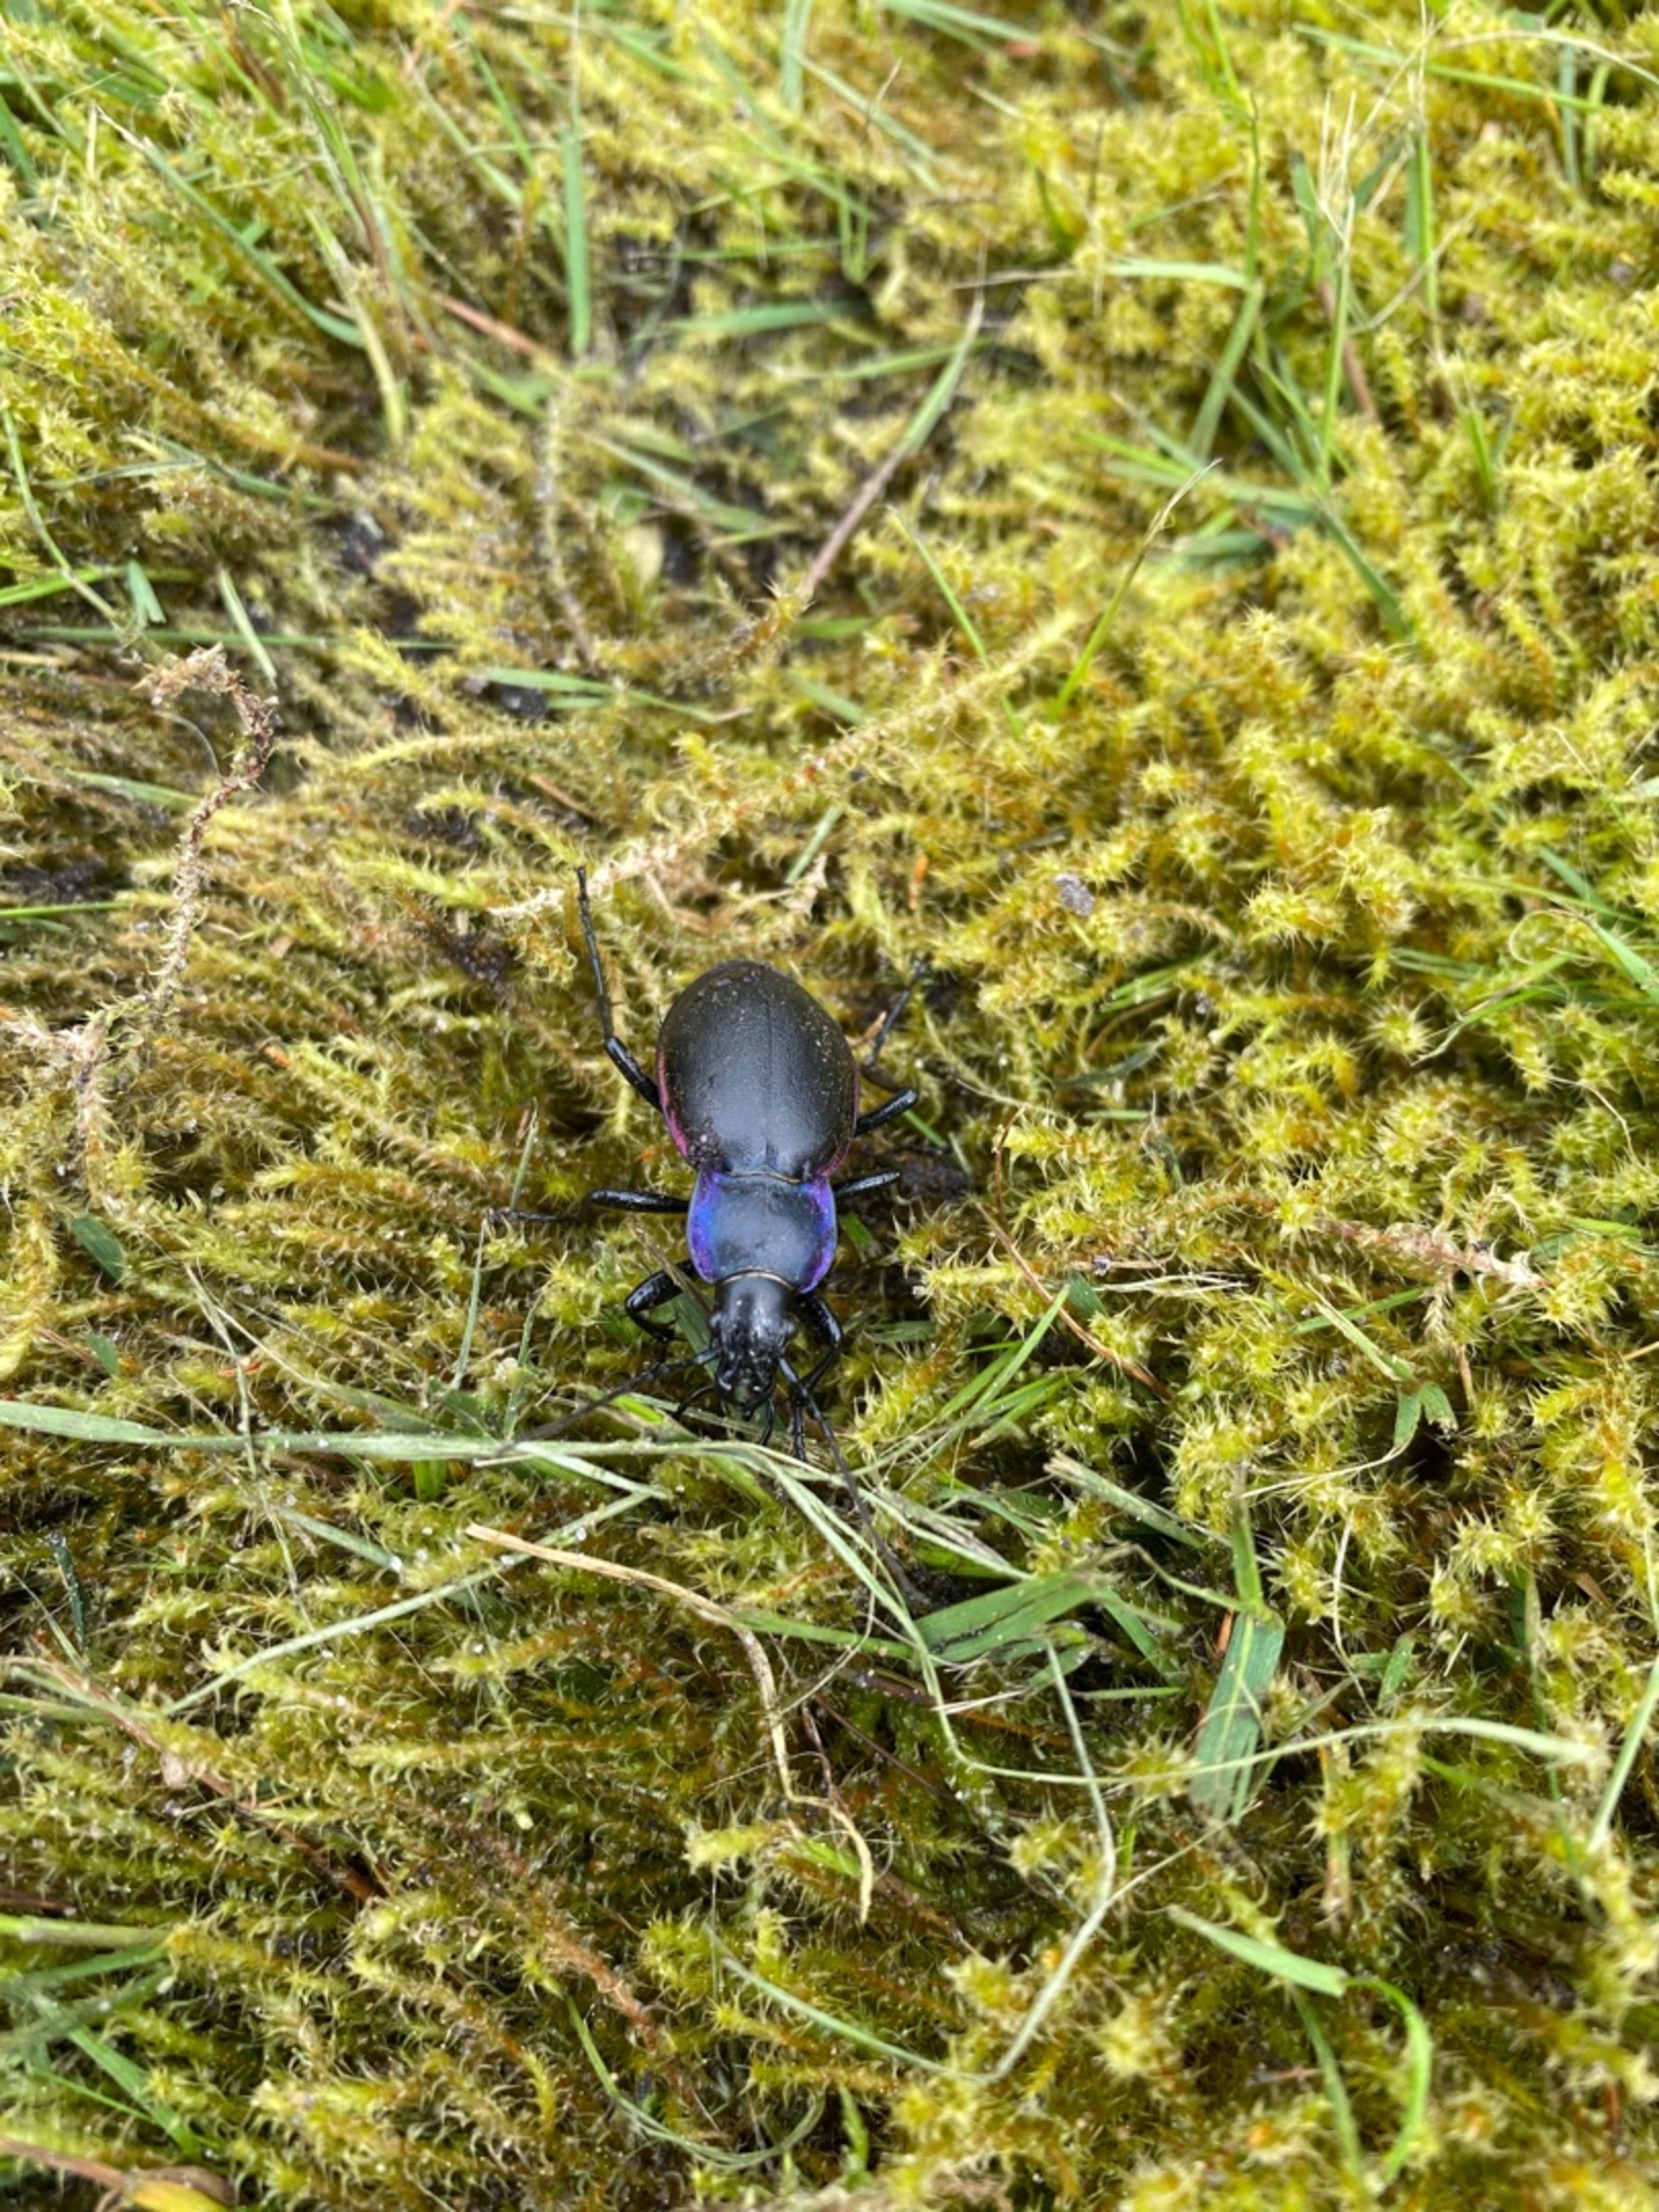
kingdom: Animalia
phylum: Arthropoda
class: Insecta
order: Coleoptera
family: Carabidae
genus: Carabus
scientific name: Carabus violaceus
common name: Violetrandet løber
